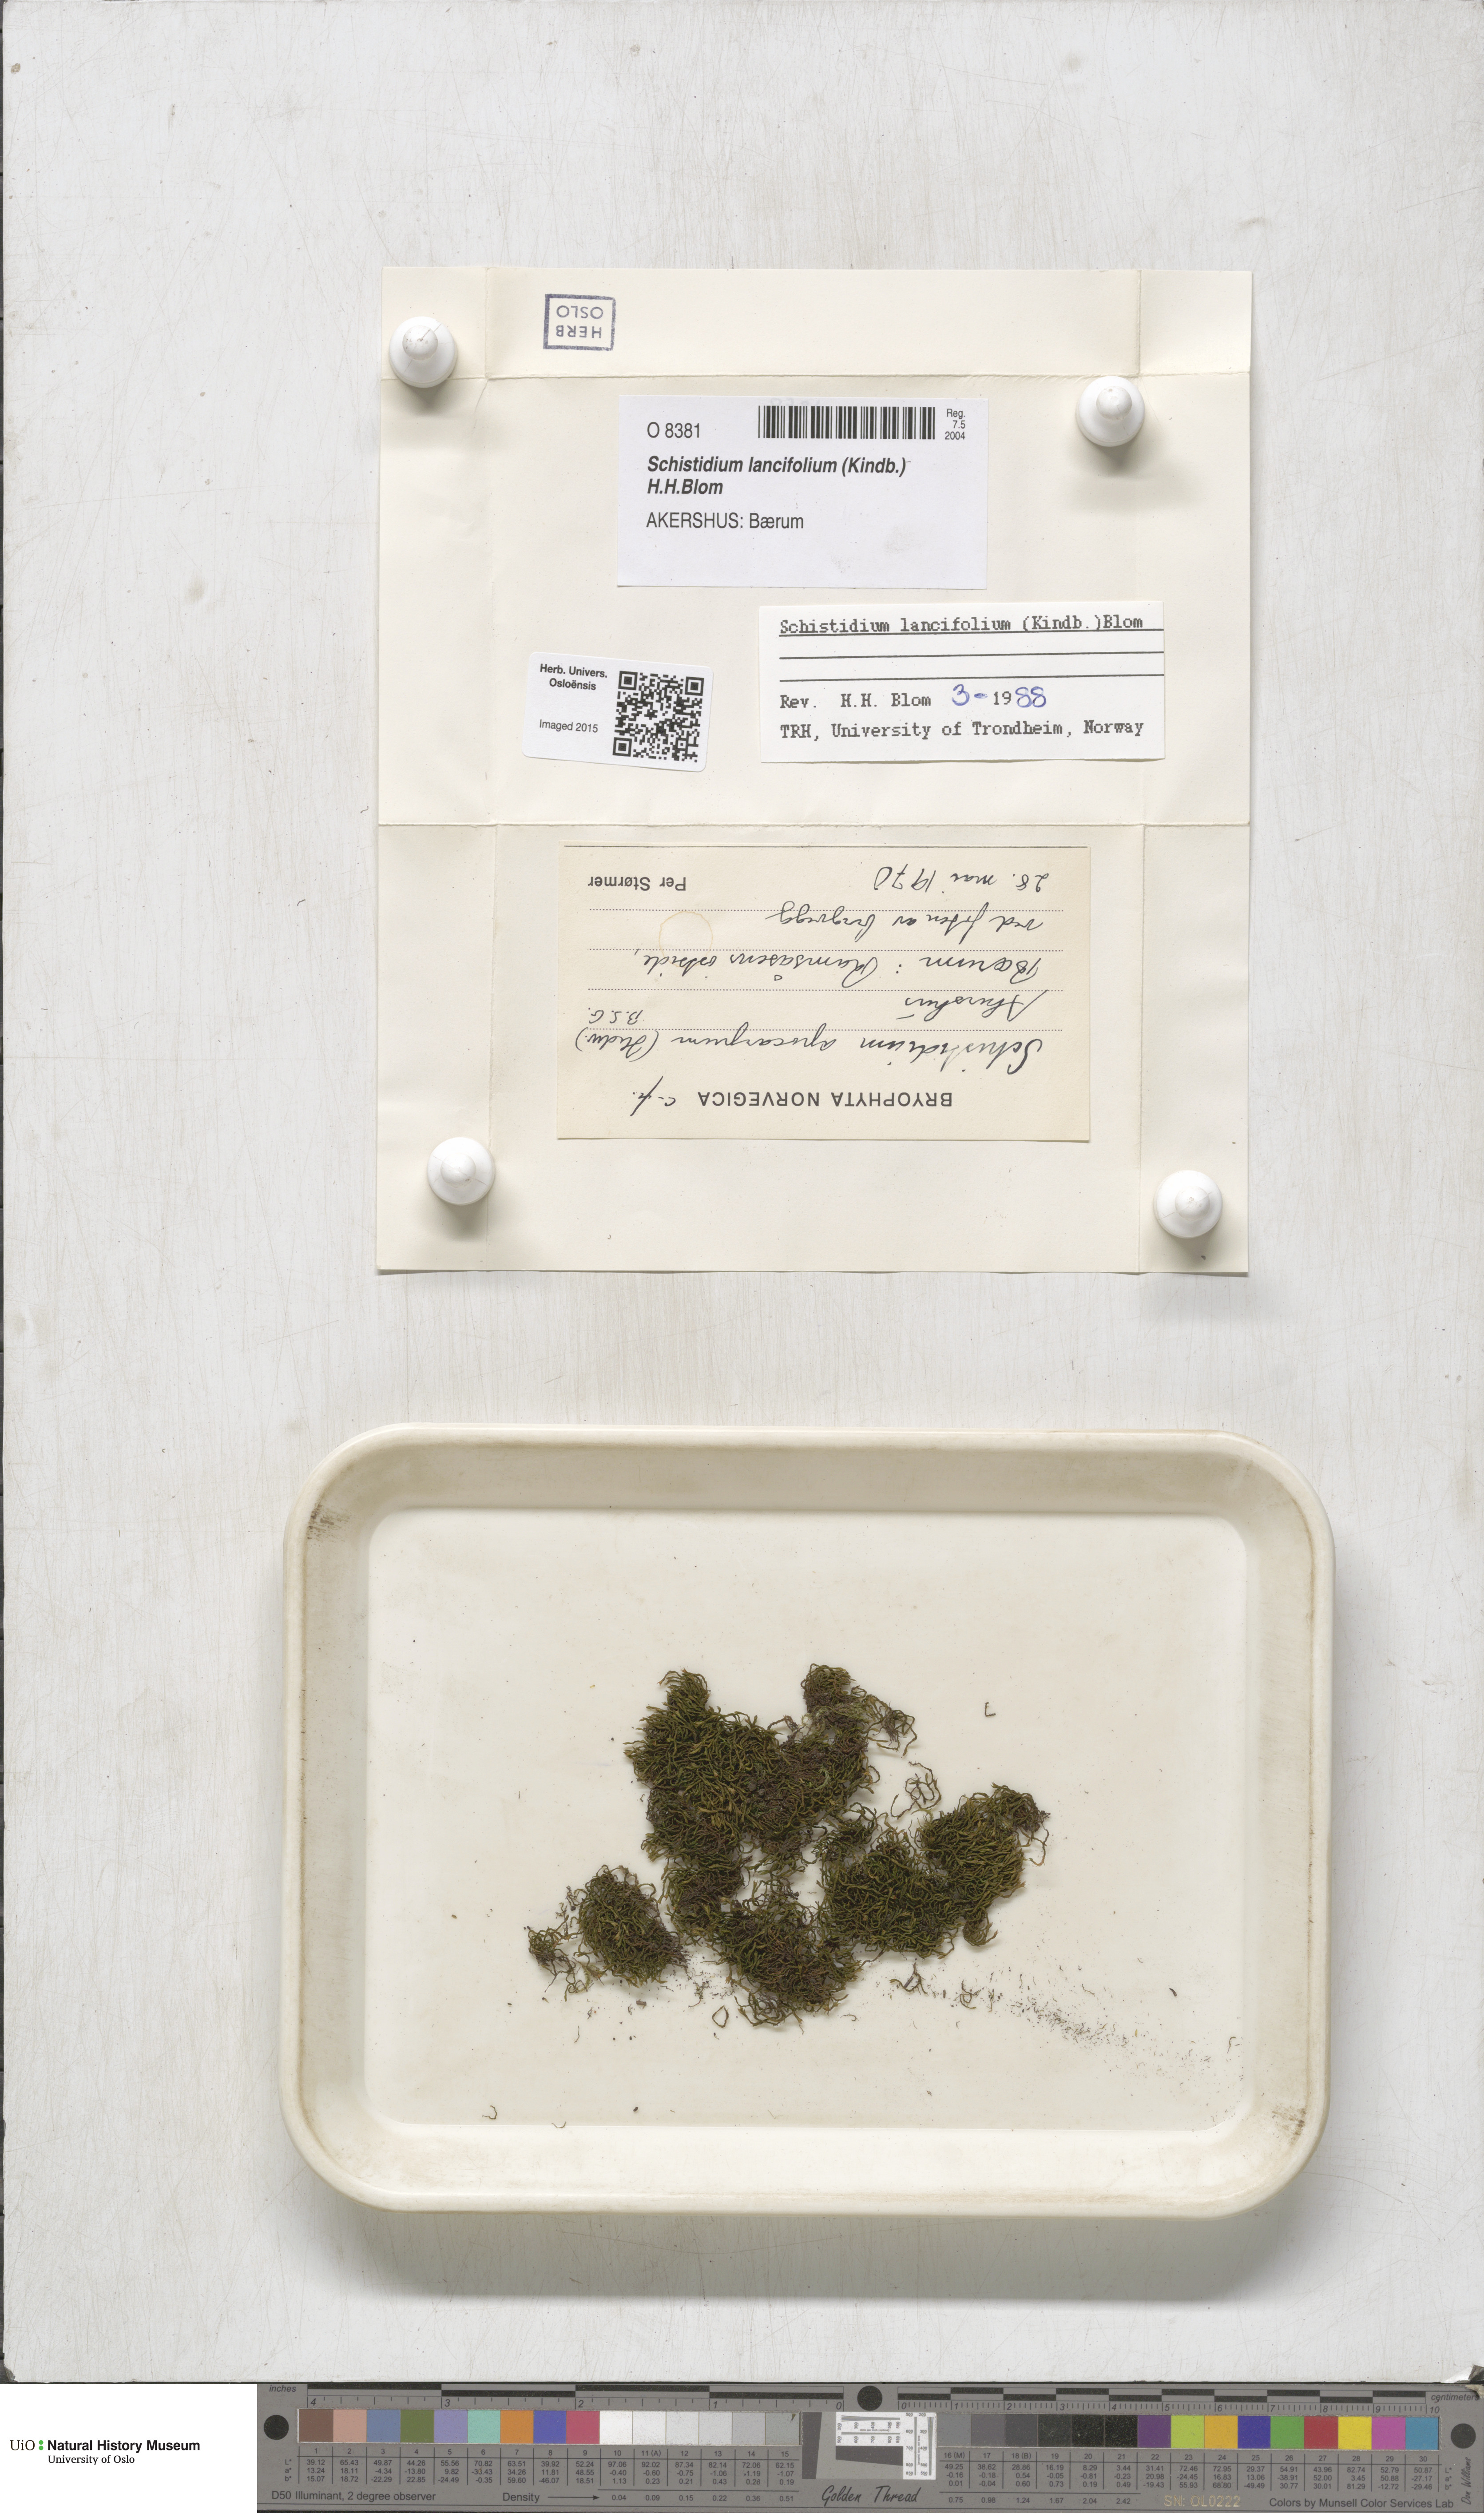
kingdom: Plantae
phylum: Bryophyta
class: Bryopsida
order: Grimmiales
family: Grimmiaceae
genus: Schistidium
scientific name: Schistidium lancifolium
